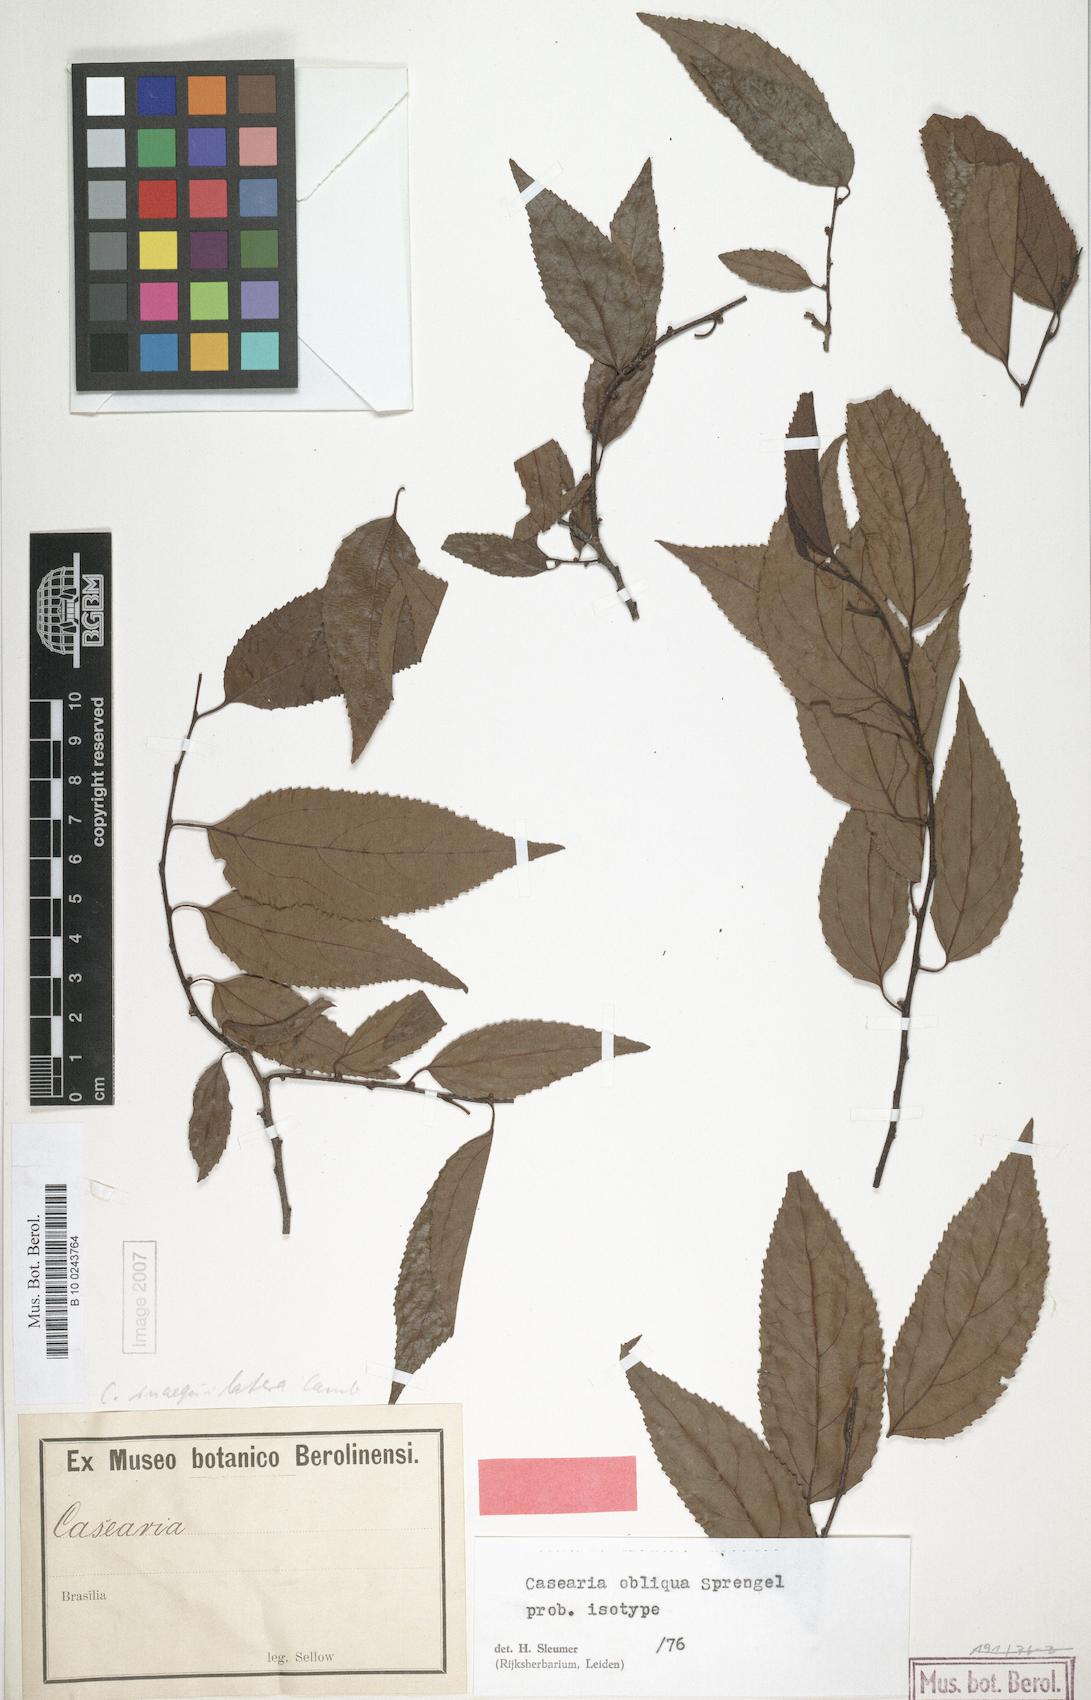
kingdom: Plantae
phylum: Tracheophyta
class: Magnoliopsida
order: Malpighiales
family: Salicaceae
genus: Casearia
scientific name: Casearia obliqua
